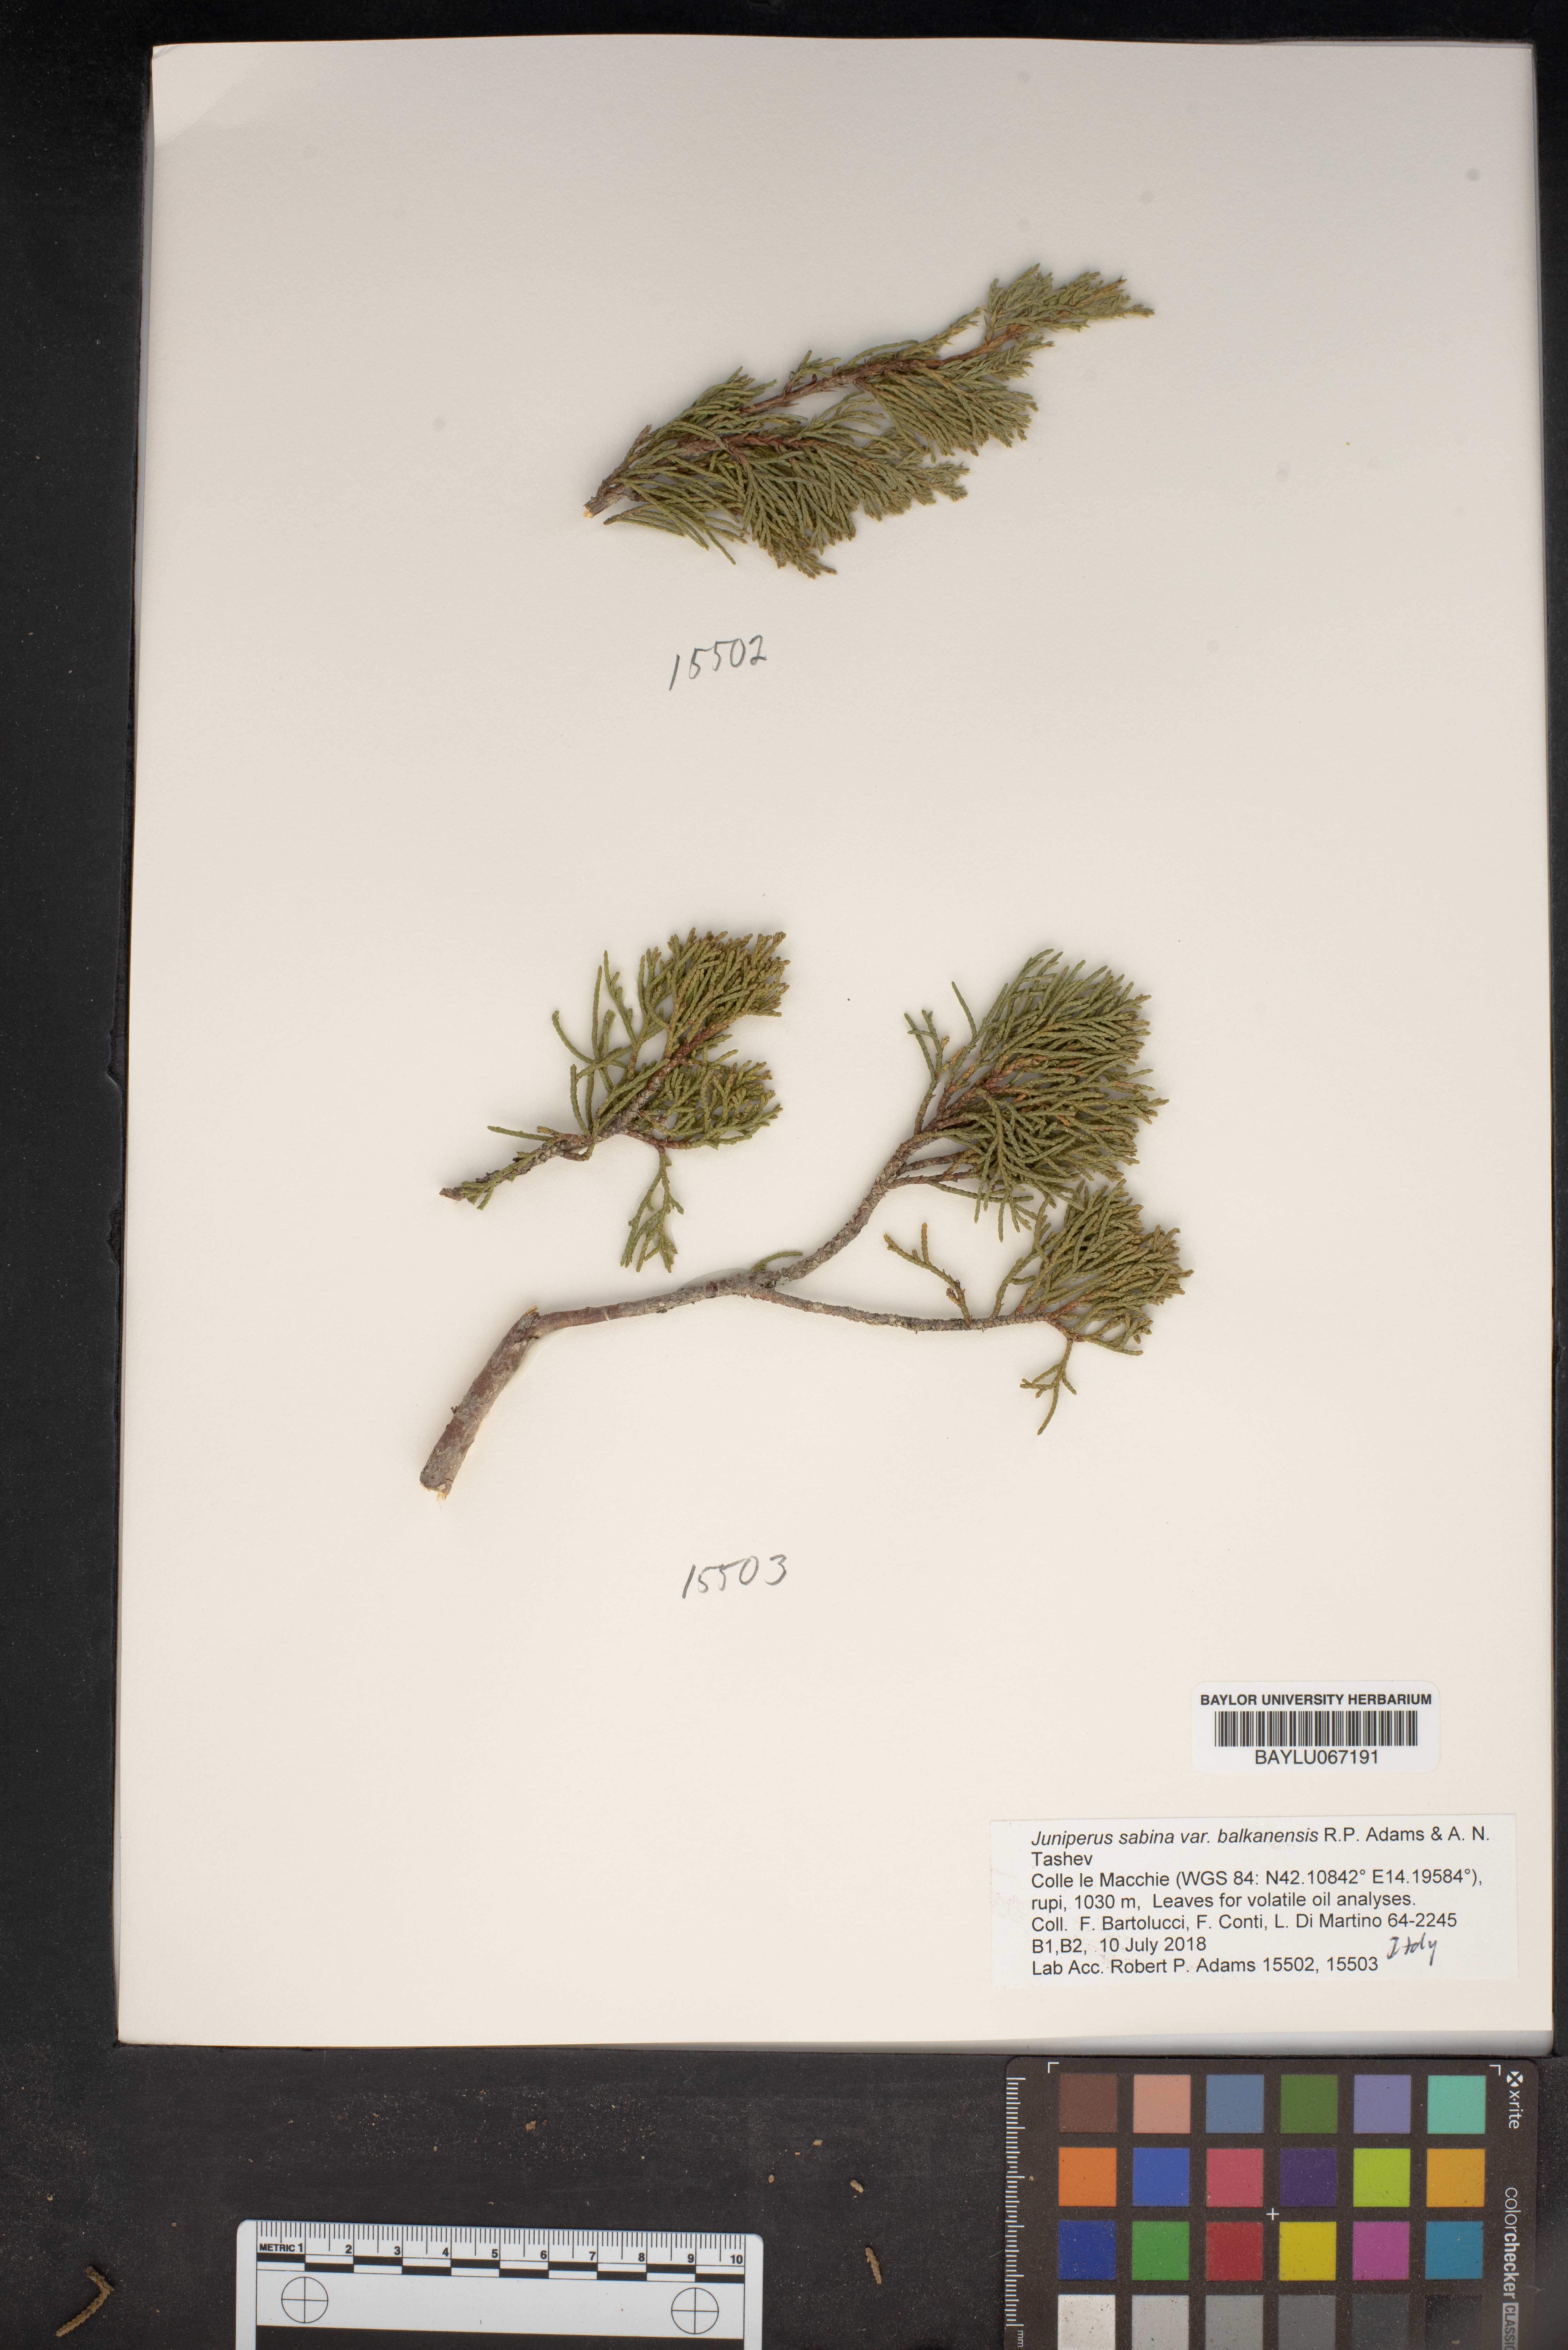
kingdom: Plantae
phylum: Tracheophyta
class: Pinopsida
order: Pinales
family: Cupressaceae
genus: Juniperus
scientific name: Juniperus sabina
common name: Savin
